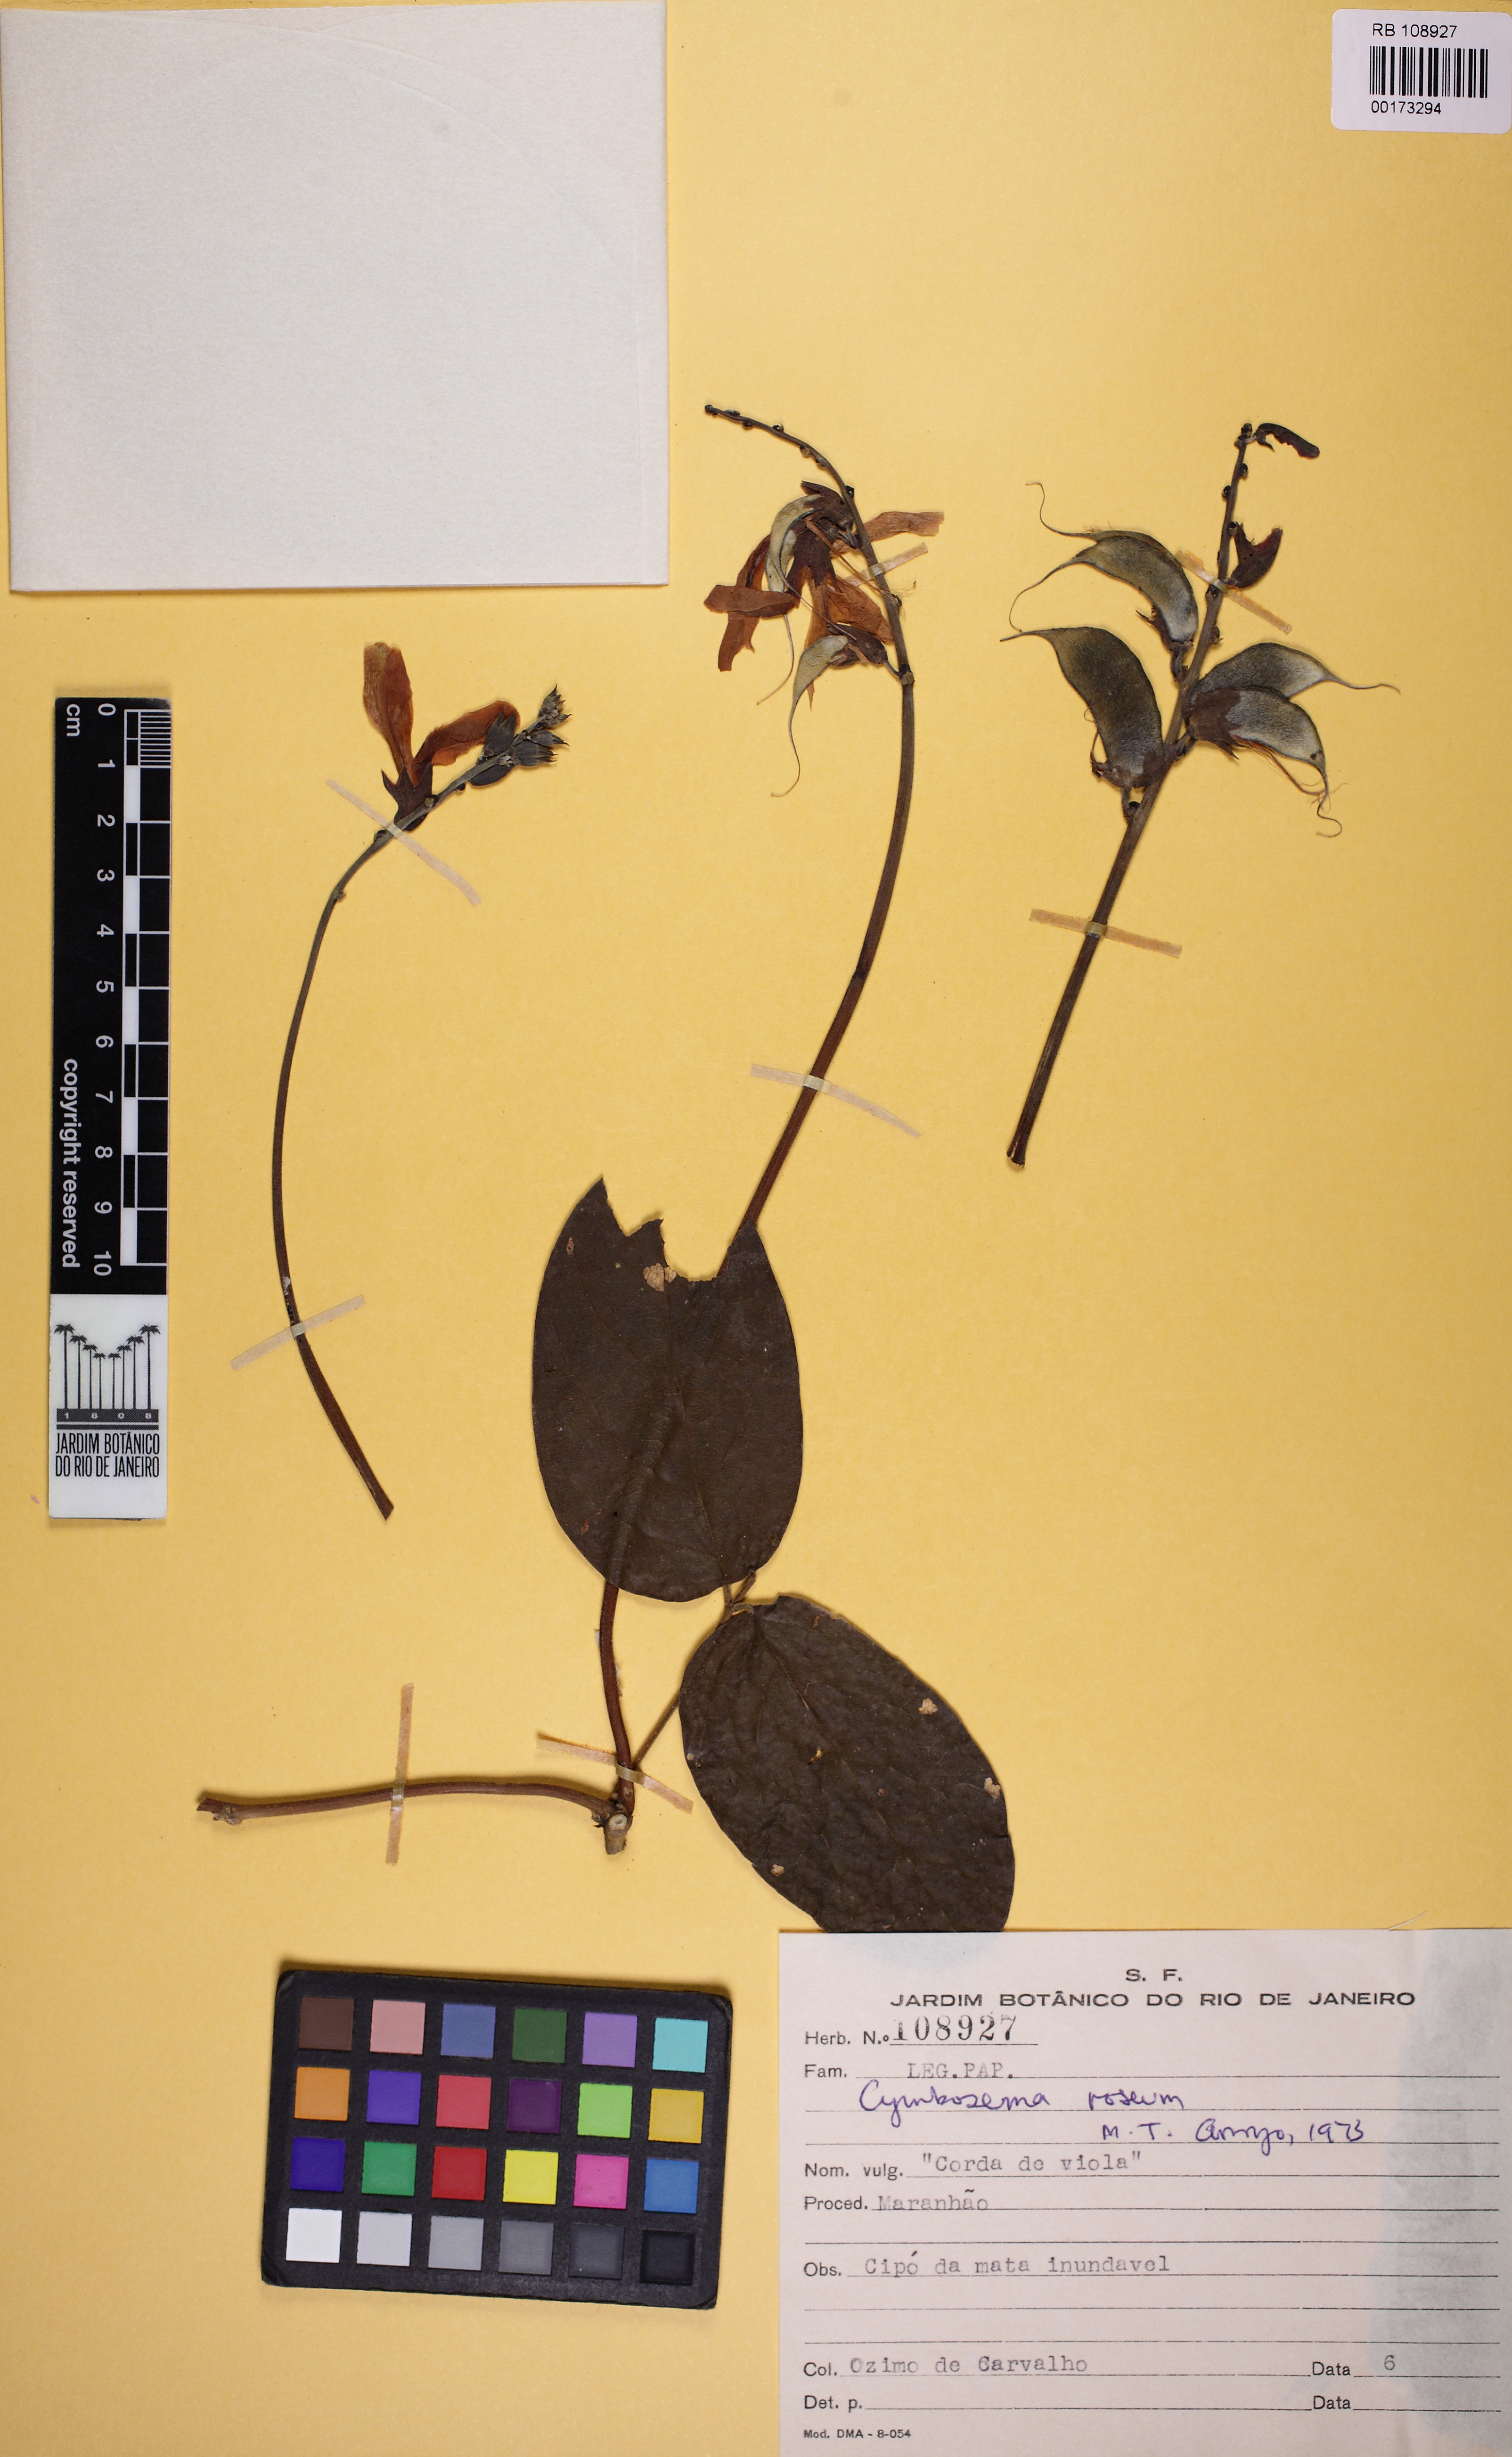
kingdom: Plantae
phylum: Tracheophyta
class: Magnoliopsida
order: Fabales
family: Fabaceae
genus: Cymbosema
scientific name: Cymbosema roseum
